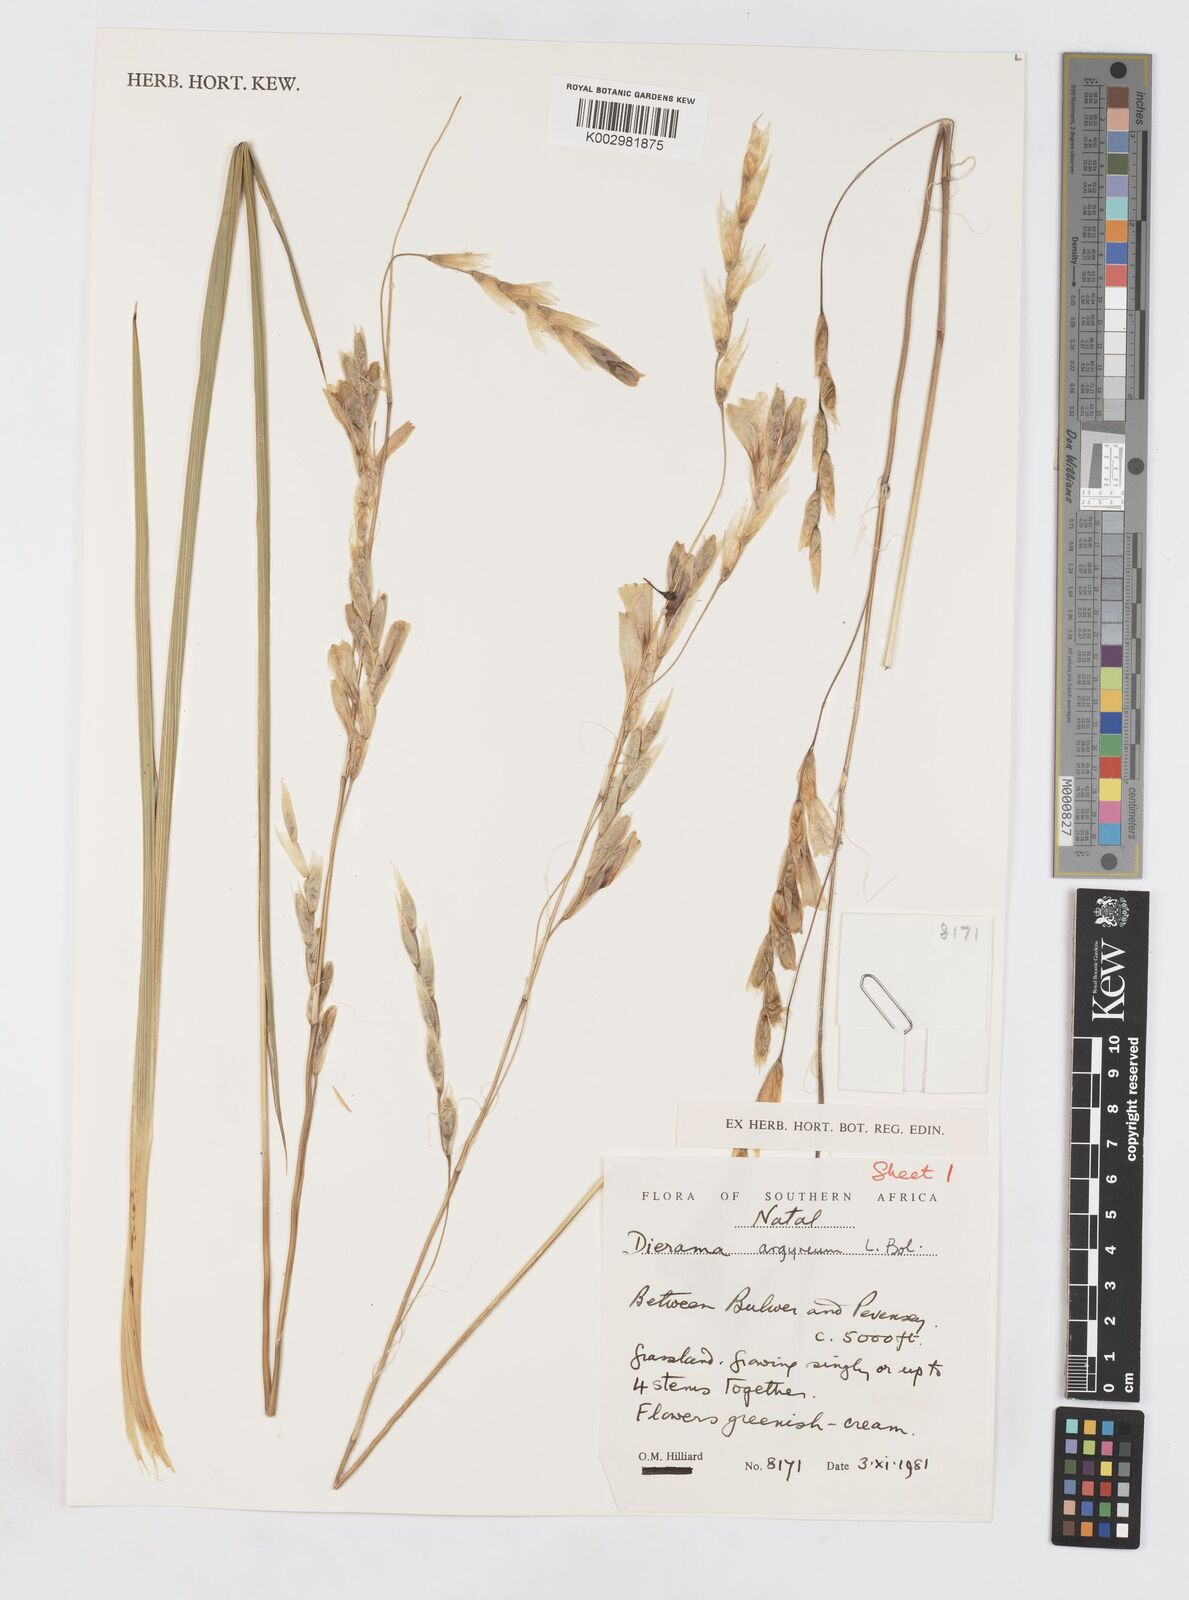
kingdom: Plantae
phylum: Tracheophyta
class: Liliopsida
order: Asparagales
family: Iridaceae
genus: Dierama
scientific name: Dierama argyreum
